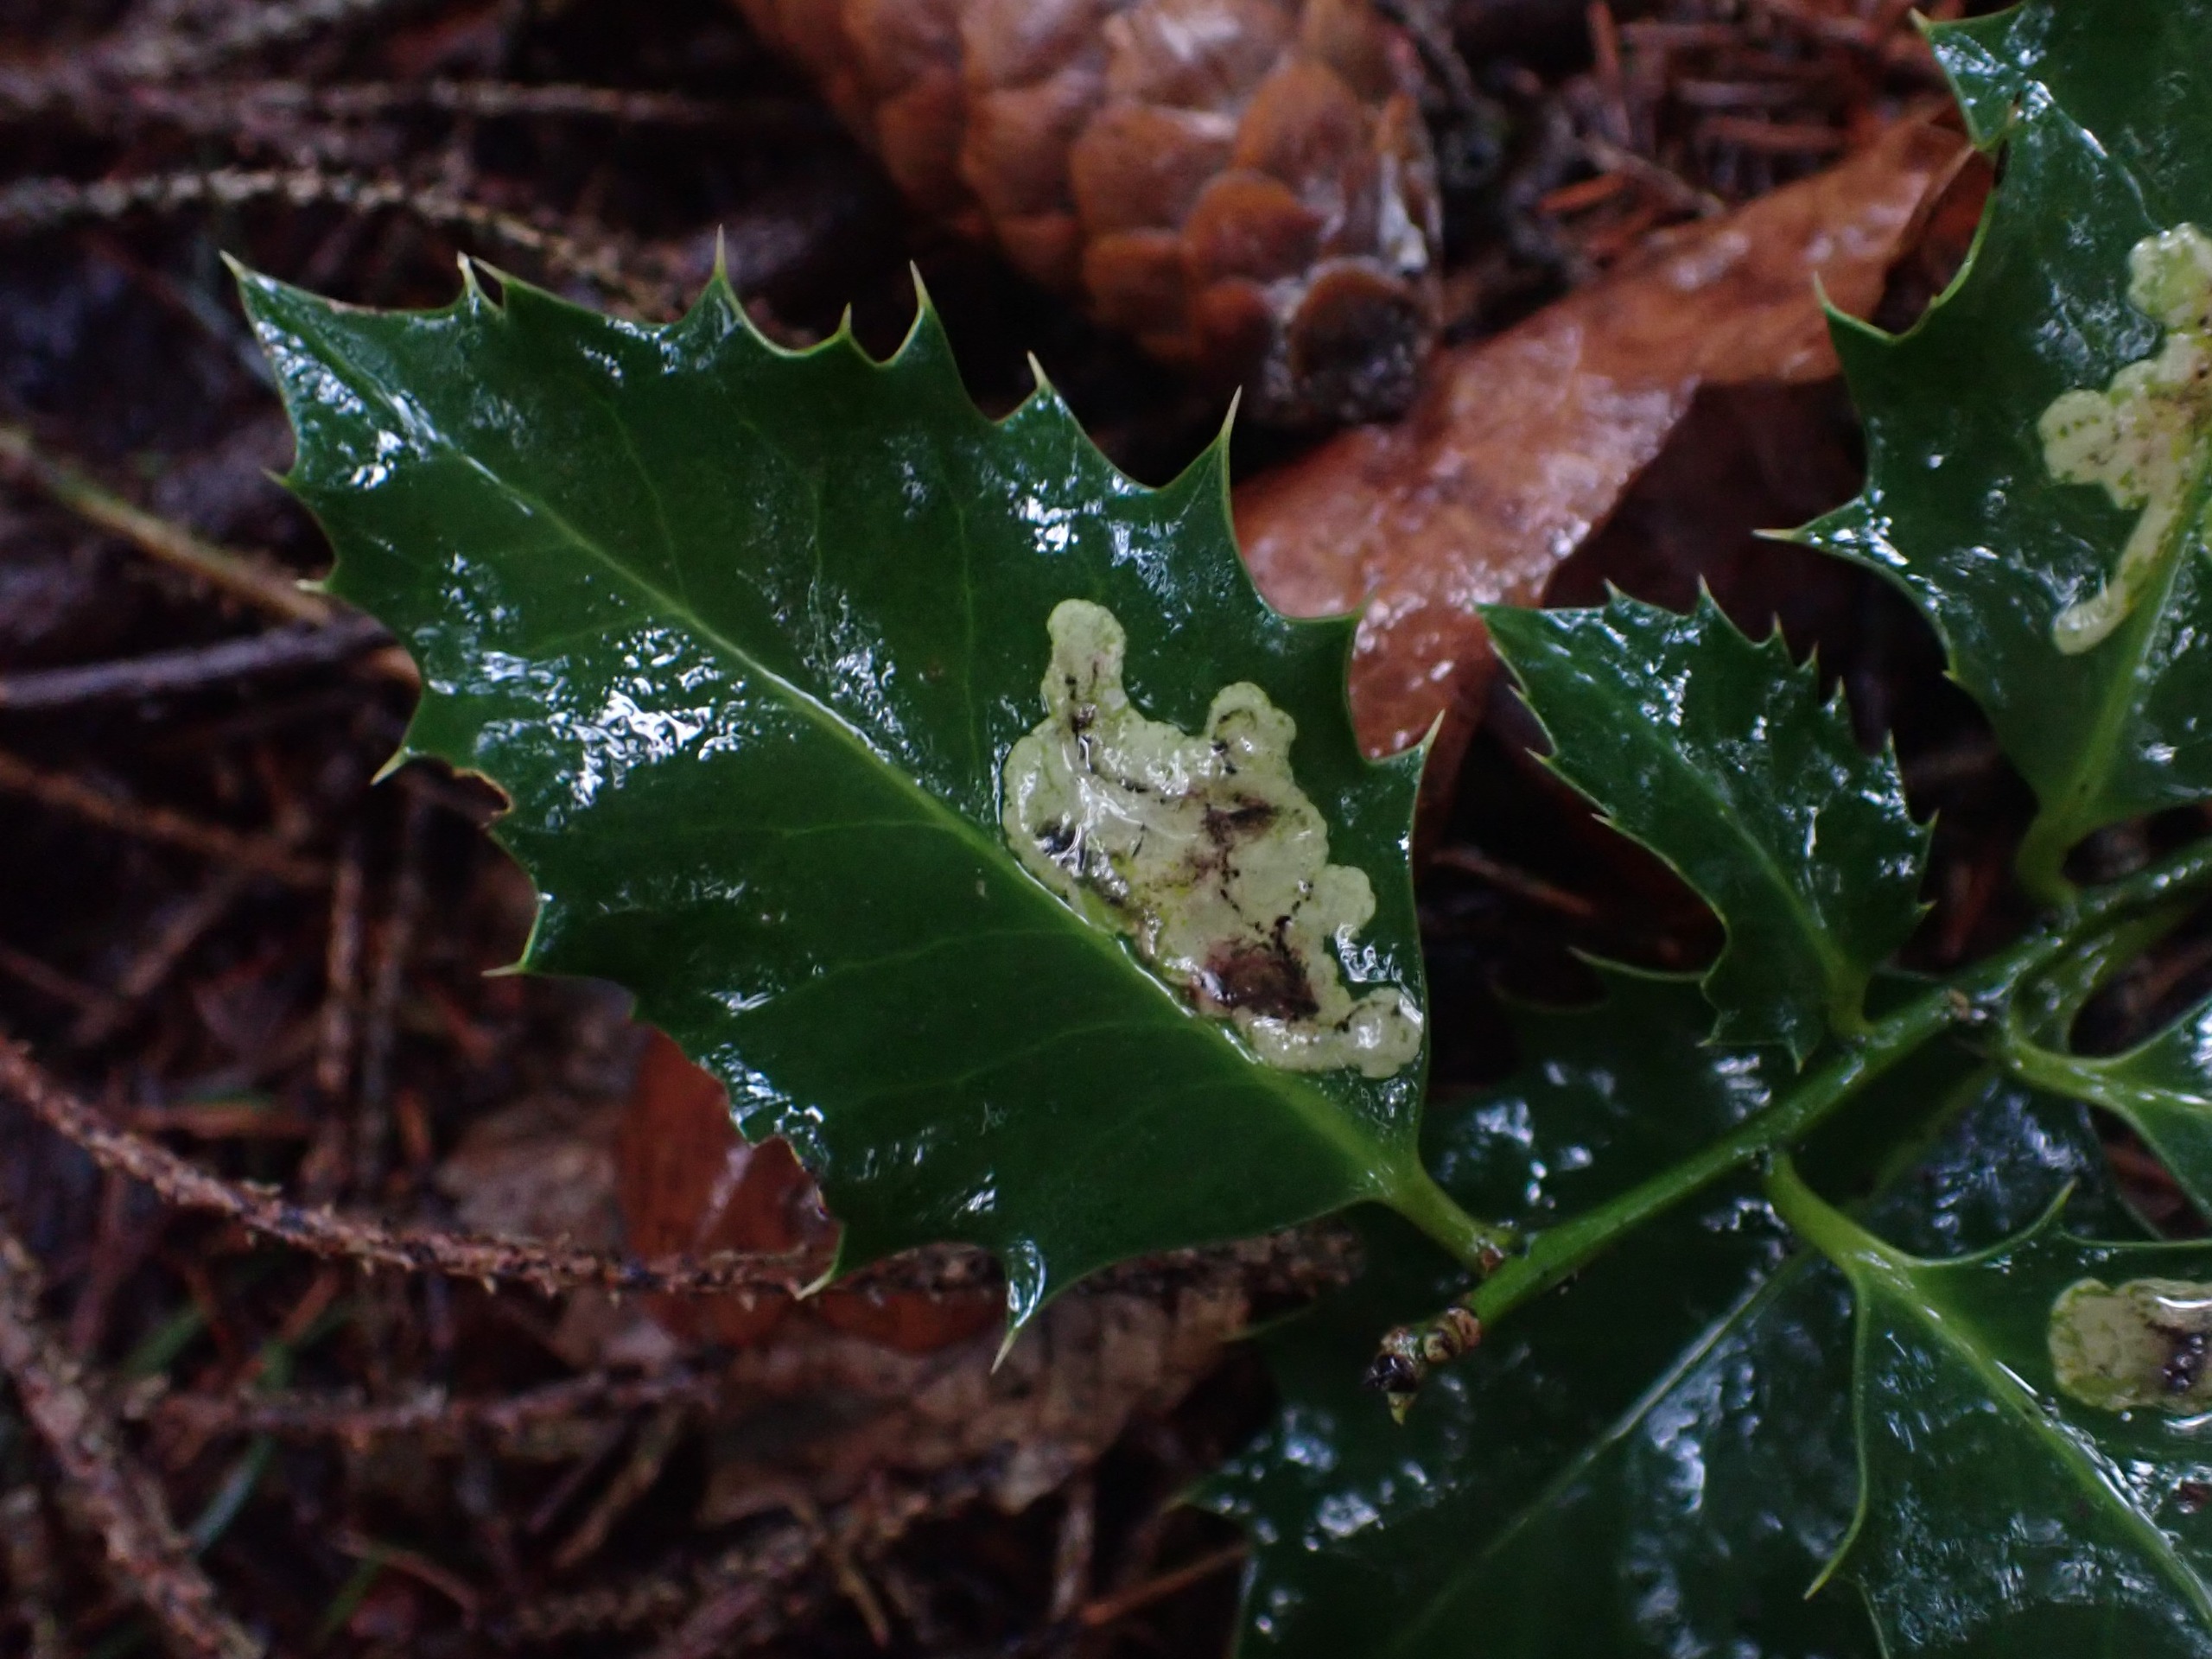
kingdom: Animalia
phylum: Arthropoda
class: Insecta
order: Diptera
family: Agromyzidae
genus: Phytomyza
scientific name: Phytomyza ilicis
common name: Kristtornminérflue
